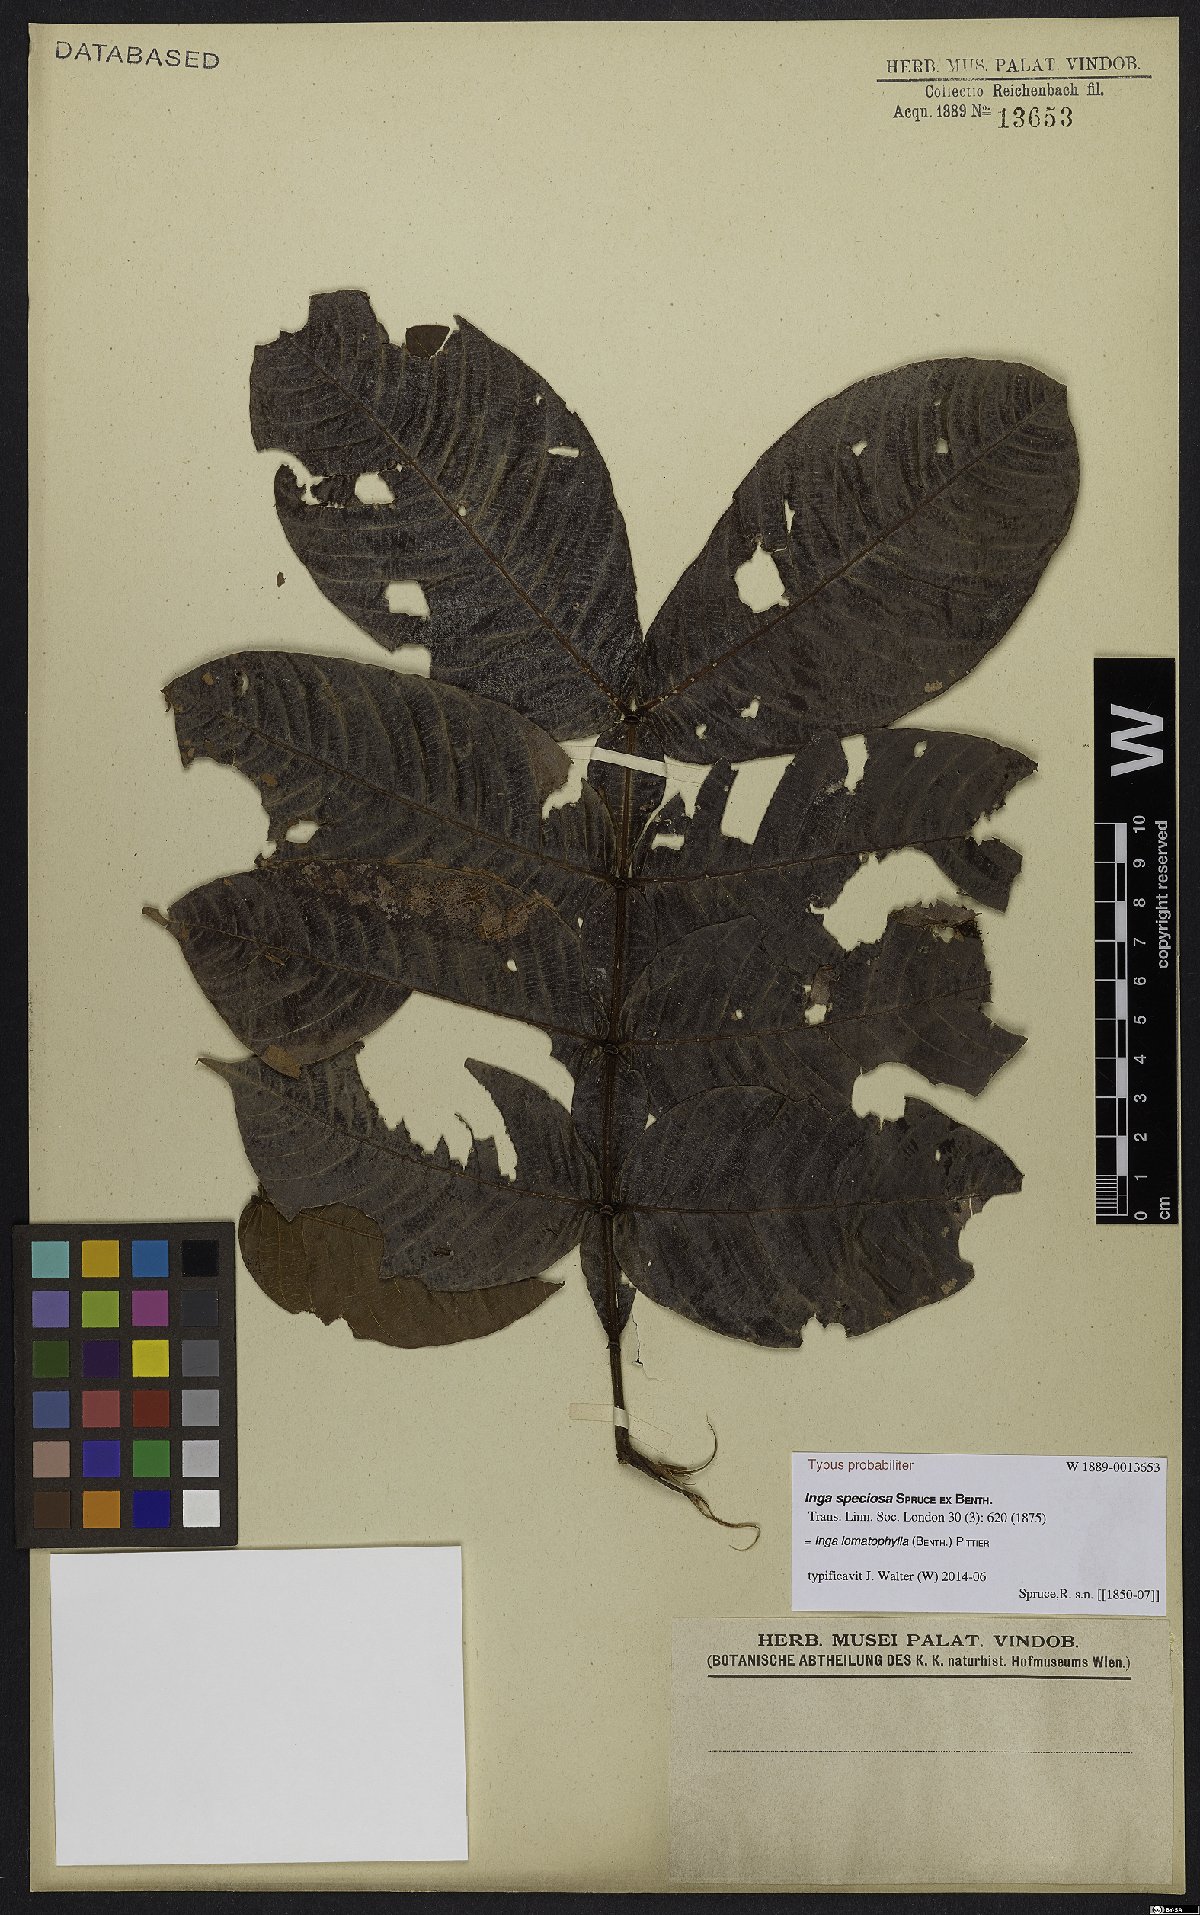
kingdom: Plantae
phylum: Tracheophyta
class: Magnoliopsida
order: Fabales
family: Fabaceae
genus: Inga
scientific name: Inga lomatophylla
